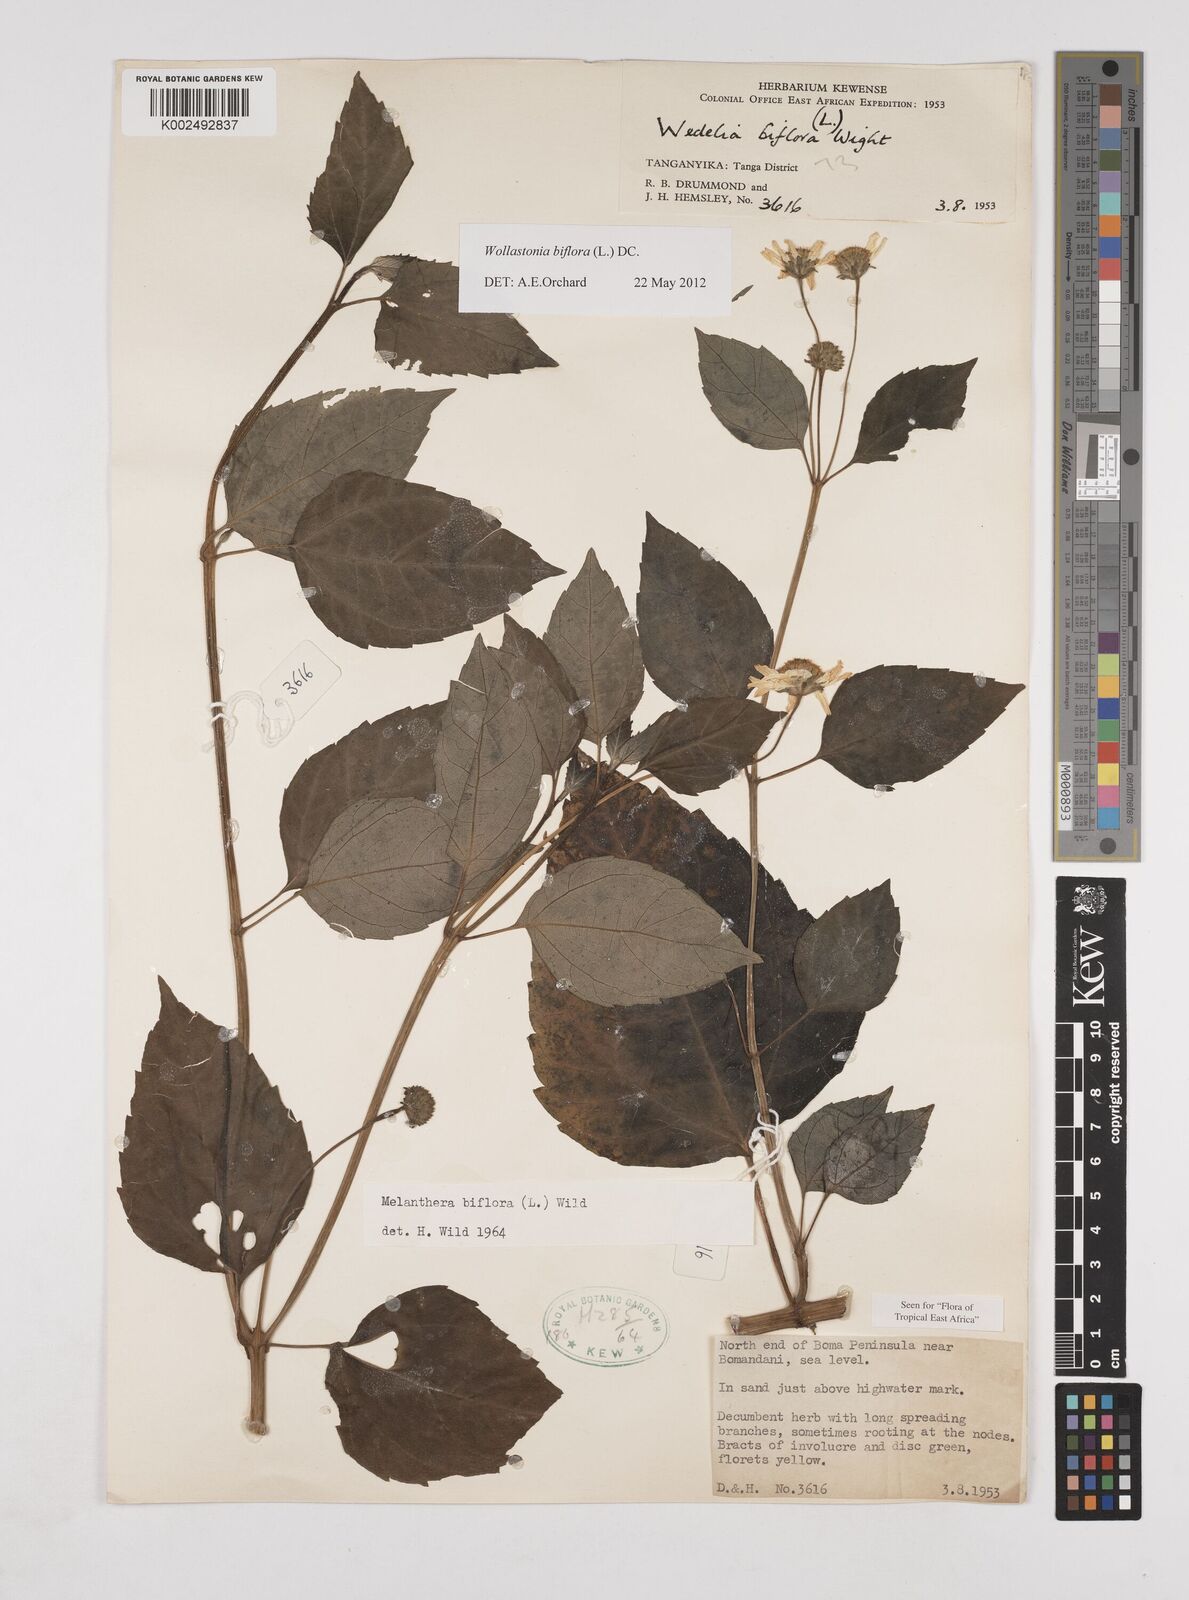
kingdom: Plantae
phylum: Tracheophyta
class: Magnoliopsida
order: Asterales
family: Asteraceae
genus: Wollastonia
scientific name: Wollastonia biflora
